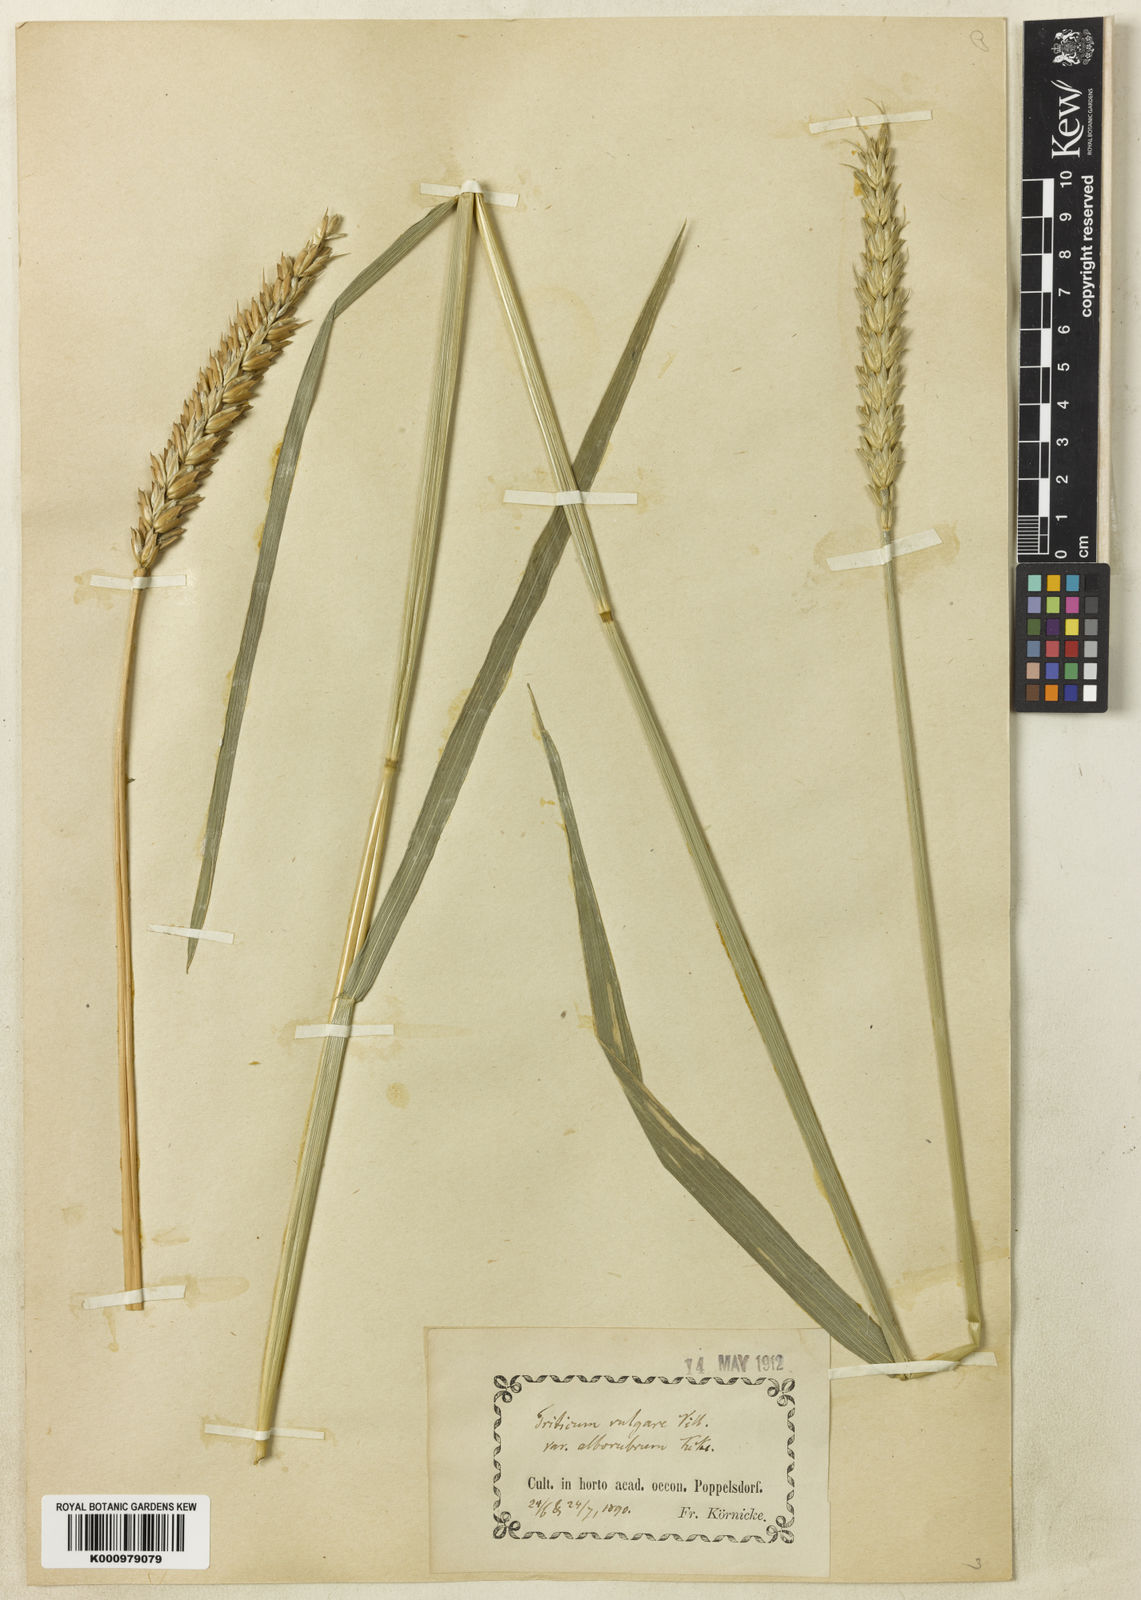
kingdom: Plantae
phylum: Tracheophyta
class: Liliopsida
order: Poales
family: Poaceae
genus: Triticum
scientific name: Triticum aestivum
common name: Common wheat
